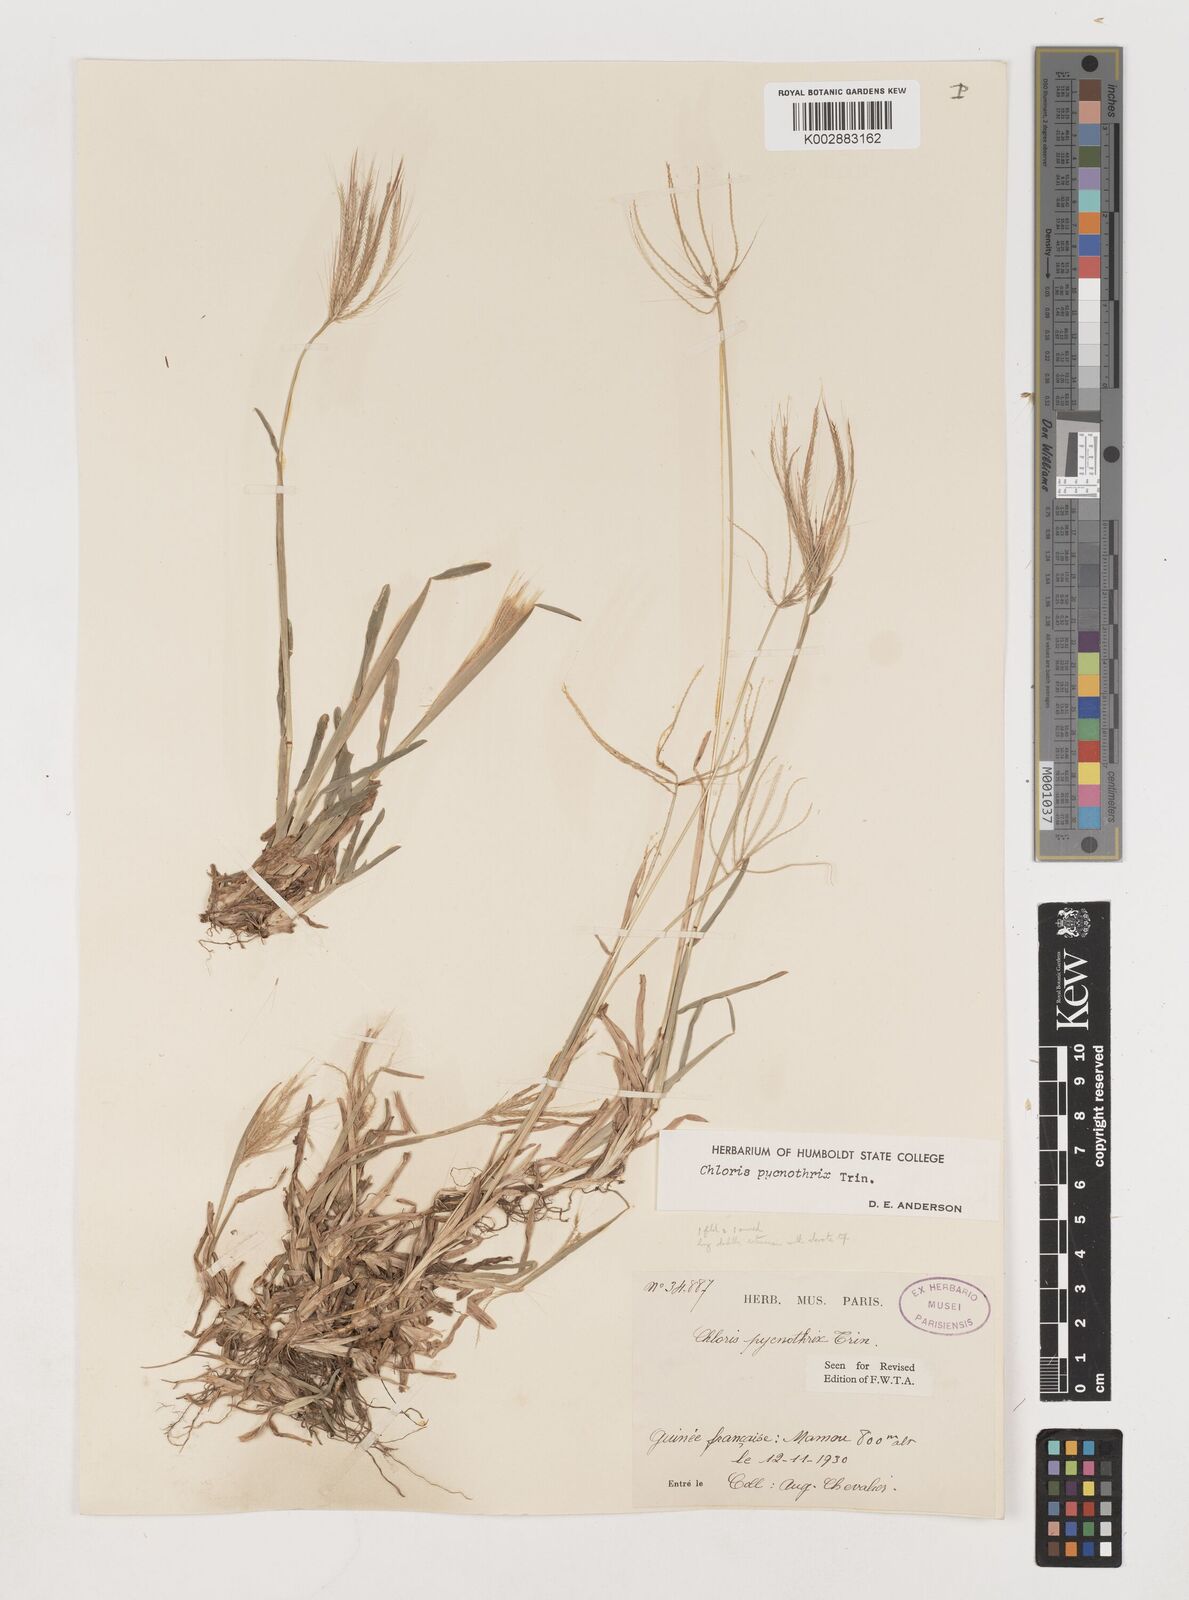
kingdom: Plantae
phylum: Tracheophyta
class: Liliopsida
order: Poales
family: Poaceae
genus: Chloris
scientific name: Chloris pycnothrix
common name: Spiderweb chloris
